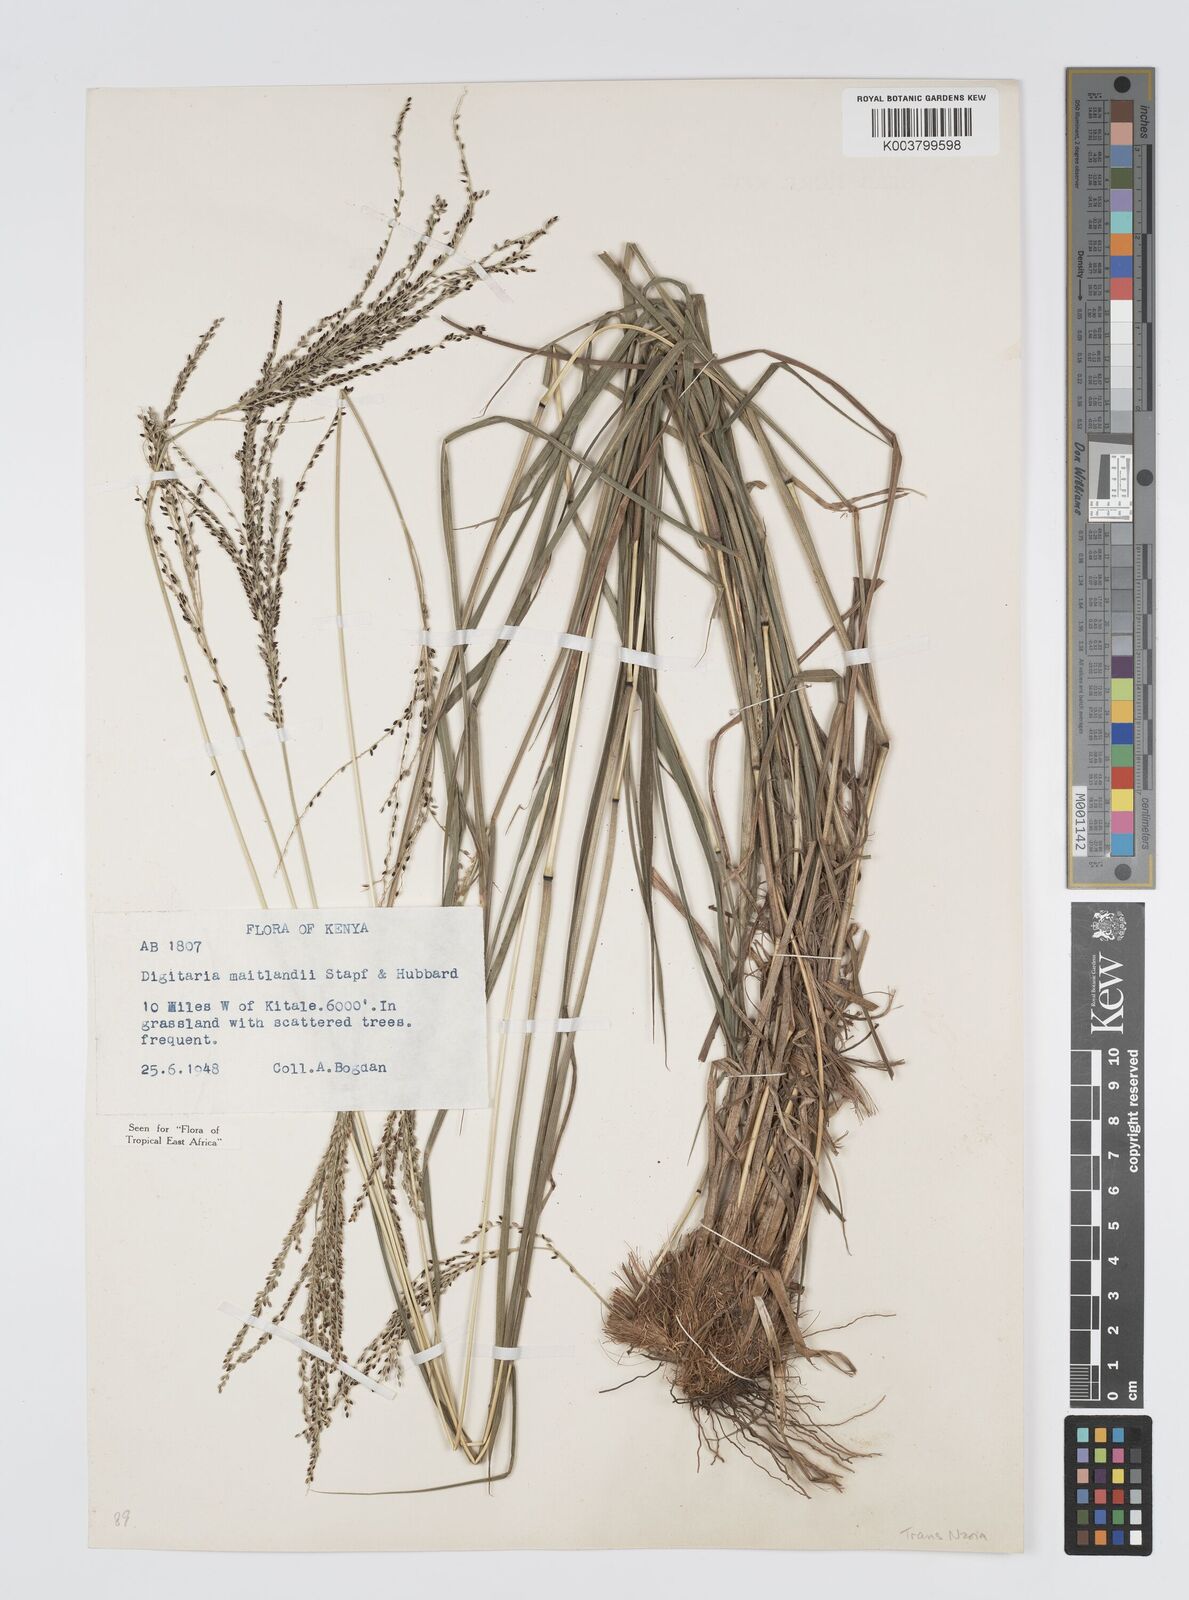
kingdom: Plantae
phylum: Tracheophyta
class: Liliopsida
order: Poales
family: Poaceae
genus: Digitaria
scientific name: Digitaria maitlandii
